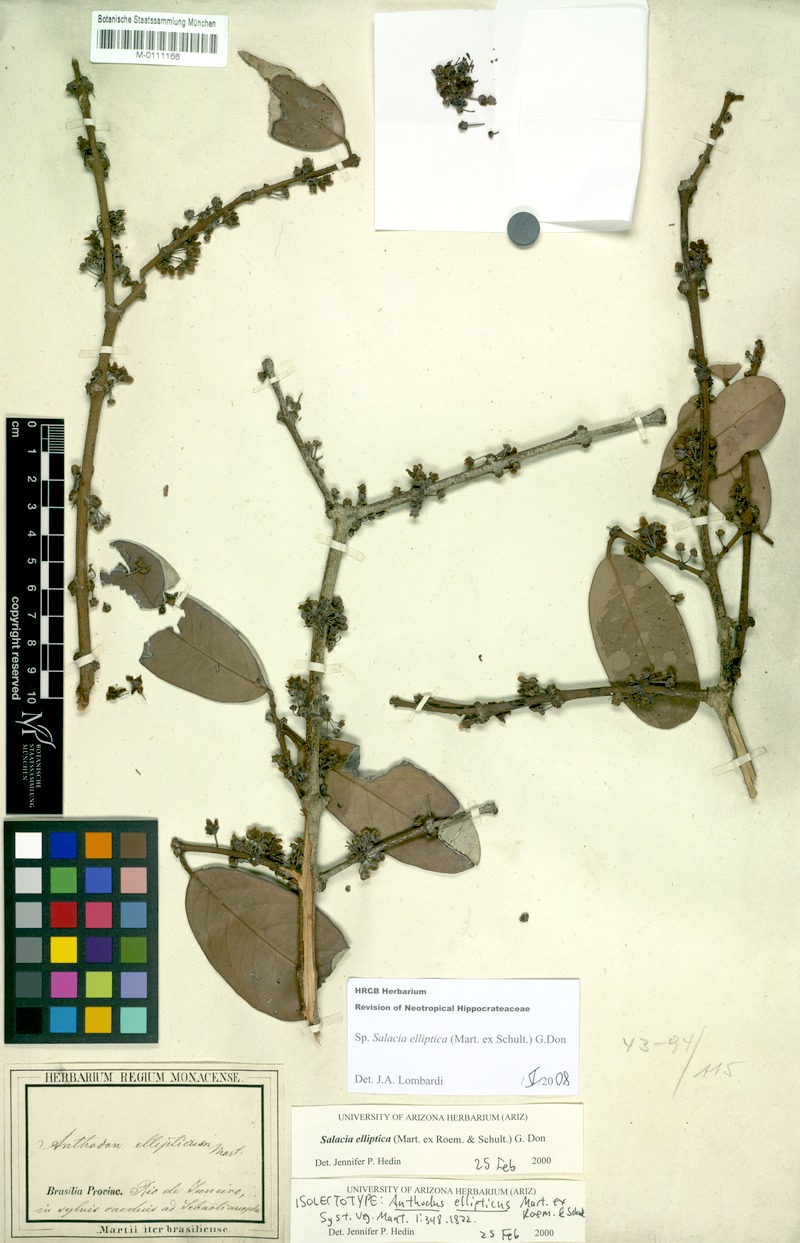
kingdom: Plantae
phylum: Tracheophyta
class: Magnoliopsida
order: Celastrales
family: Celastraceae
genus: Salacia
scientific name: Salacia elliptica
